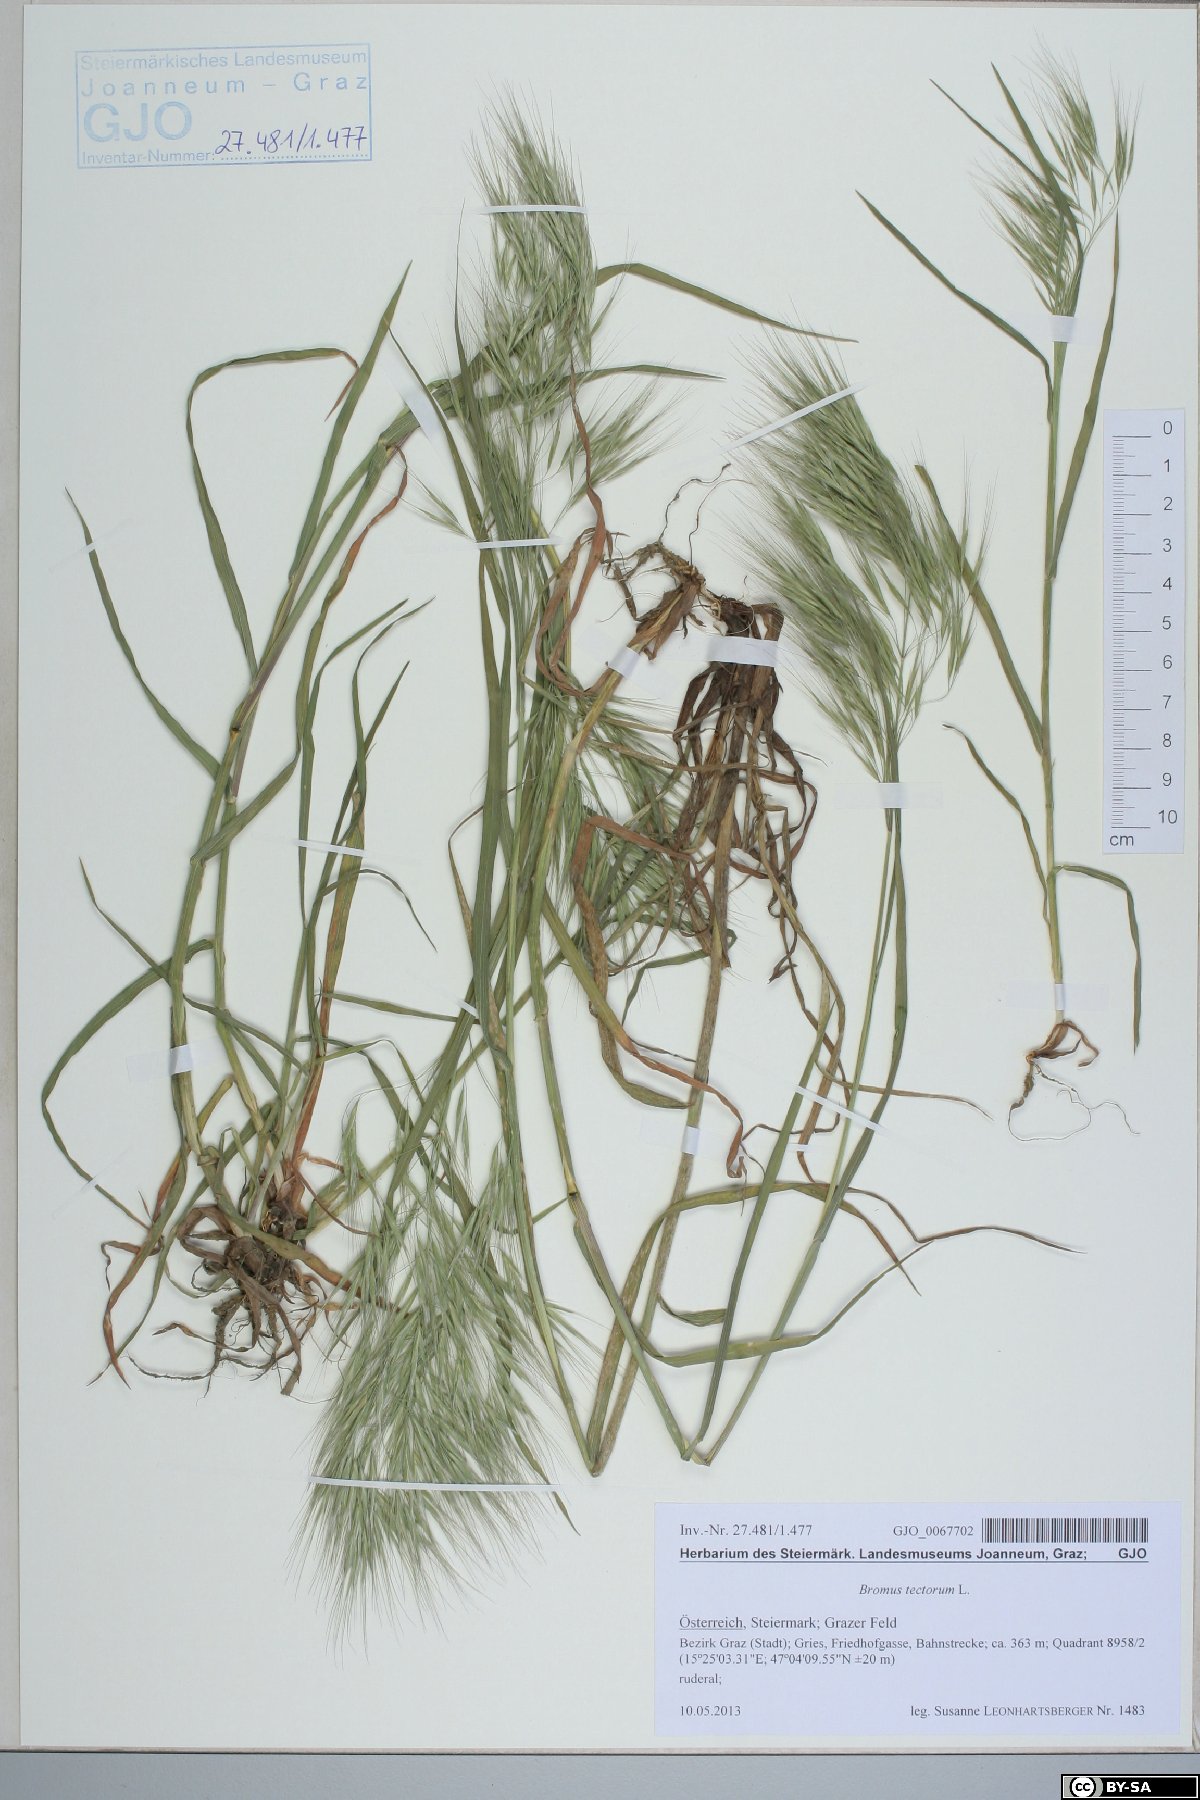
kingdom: Plantae
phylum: Tracheophyta
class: Liliopsida
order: Poales
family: Poaceae
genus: Bromus
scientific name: Bromus tectorum
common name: Cheatgrass
